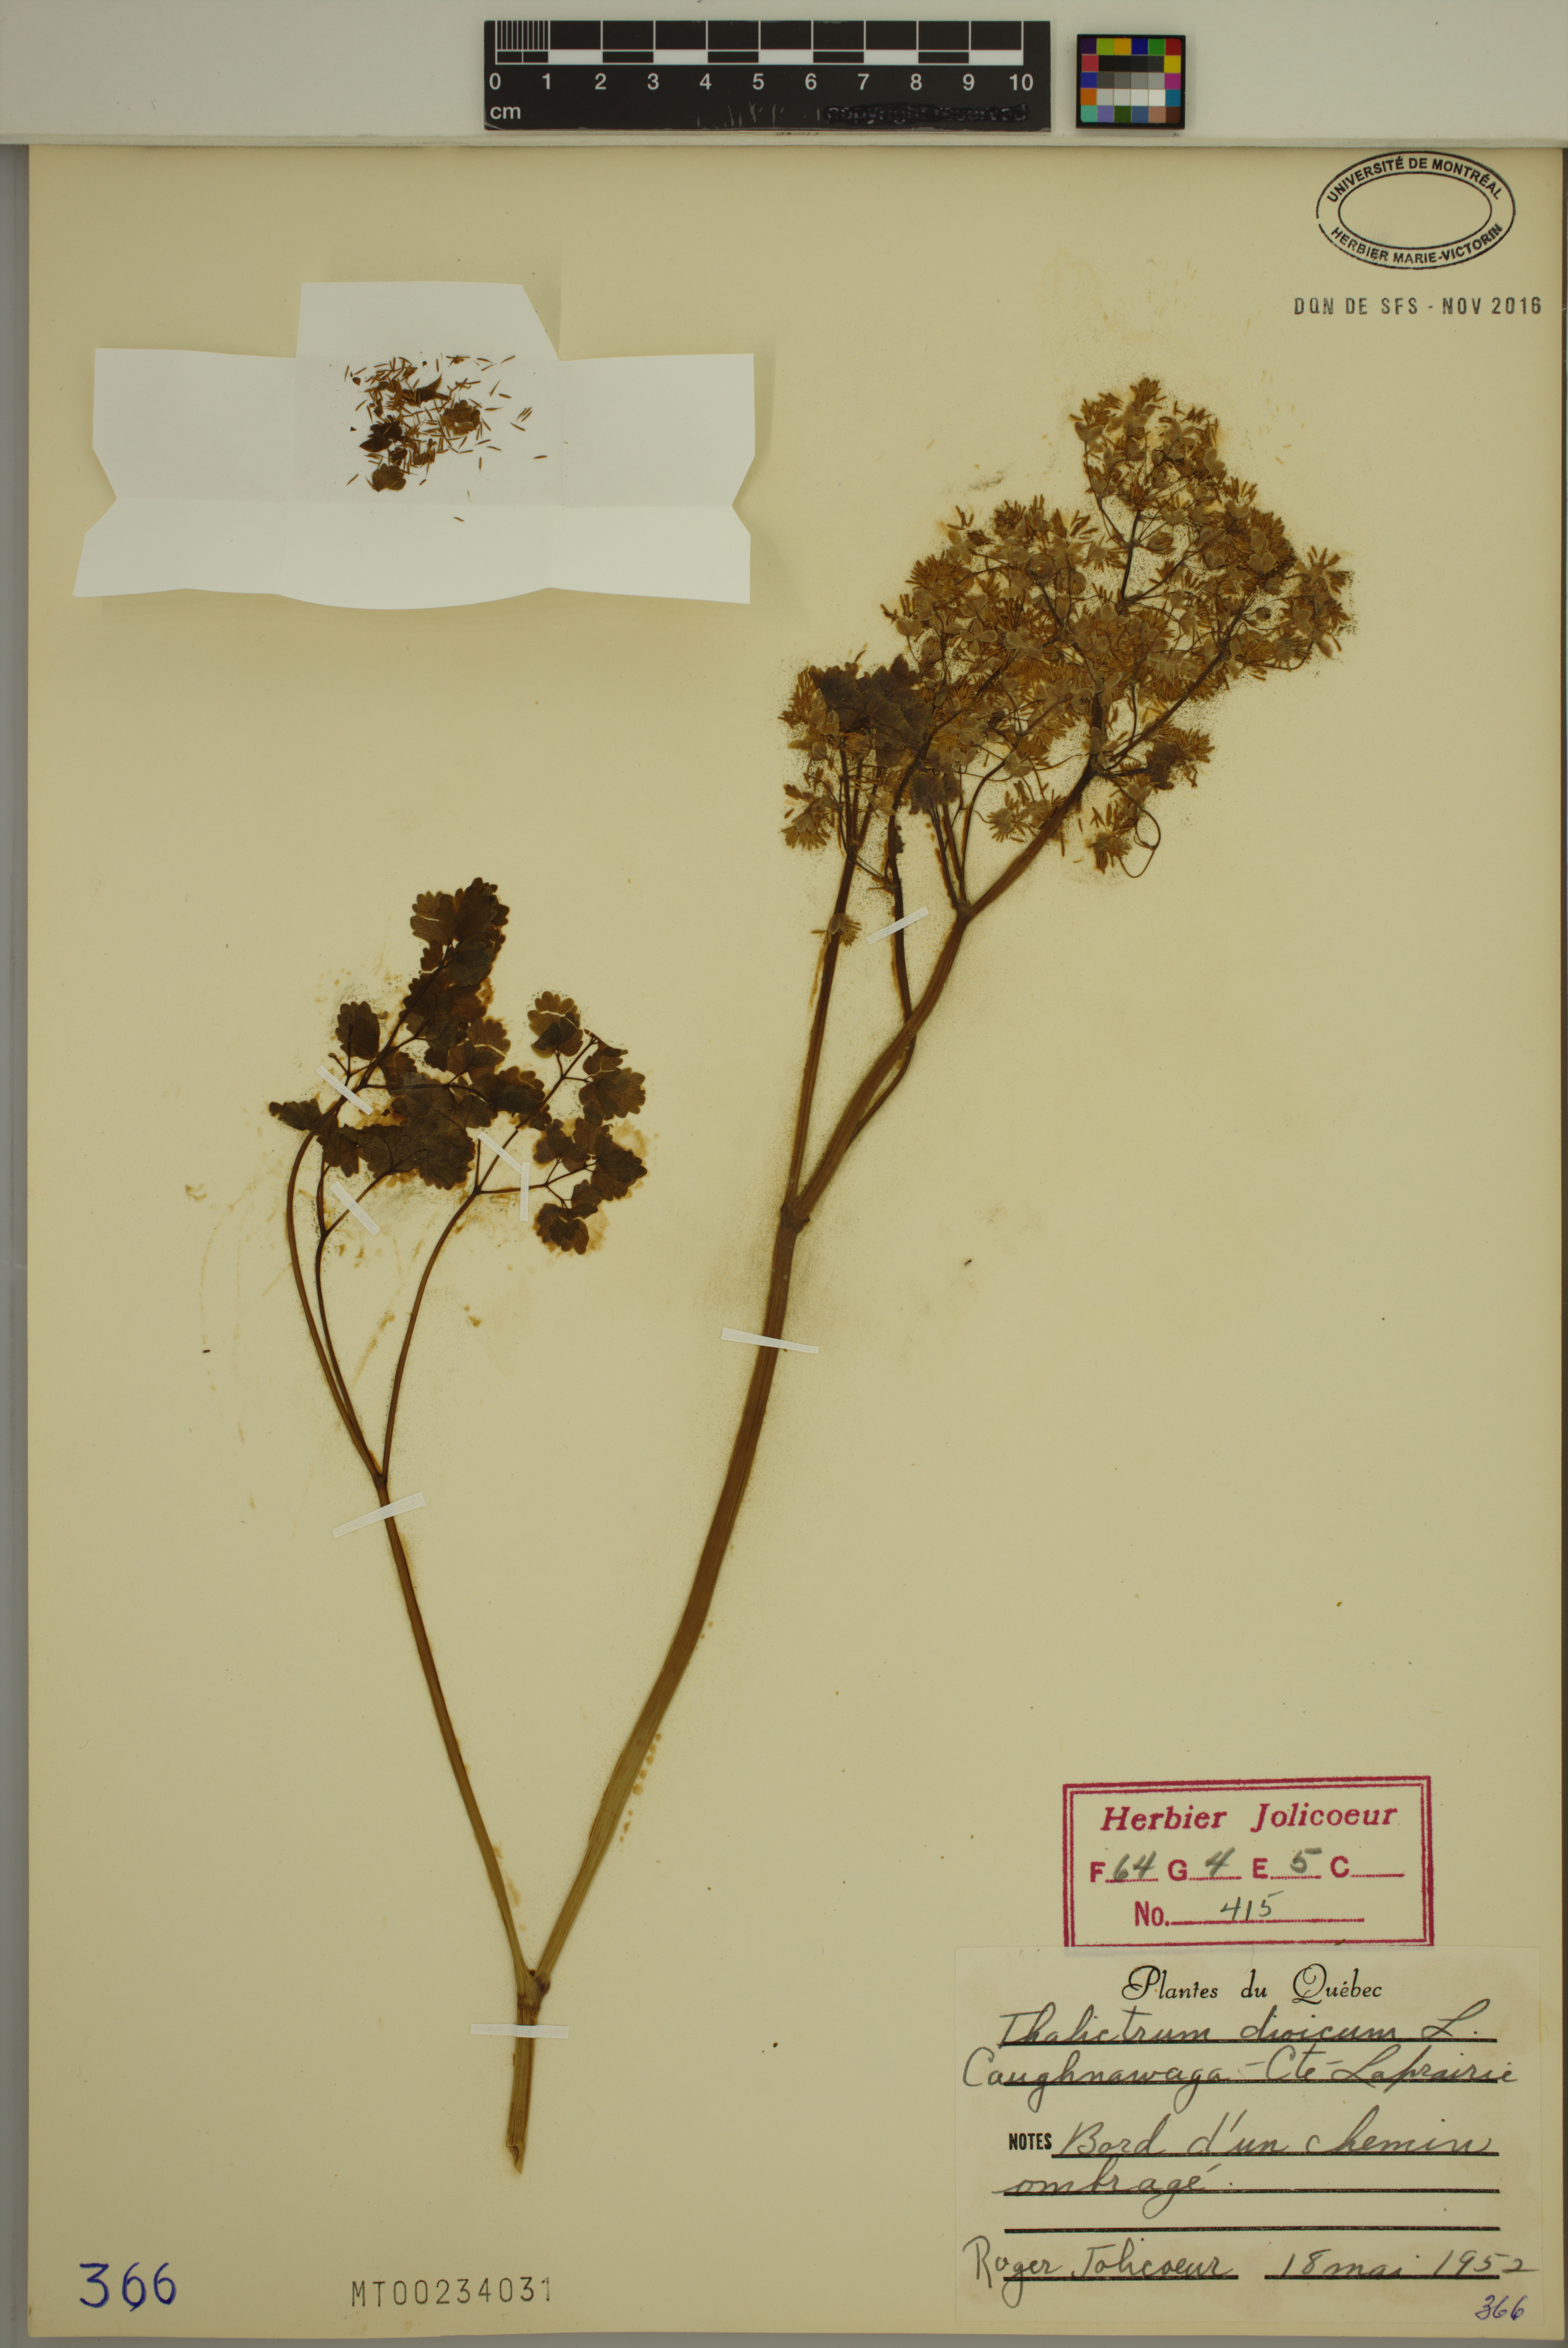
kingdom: Plantae
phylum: Tracheophyta
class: Magnoliopsida
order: Ranunculales
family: Ranunculaceae
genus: Thalictrum
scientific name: Thalictrum dioicum
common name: Early meadow-rue
